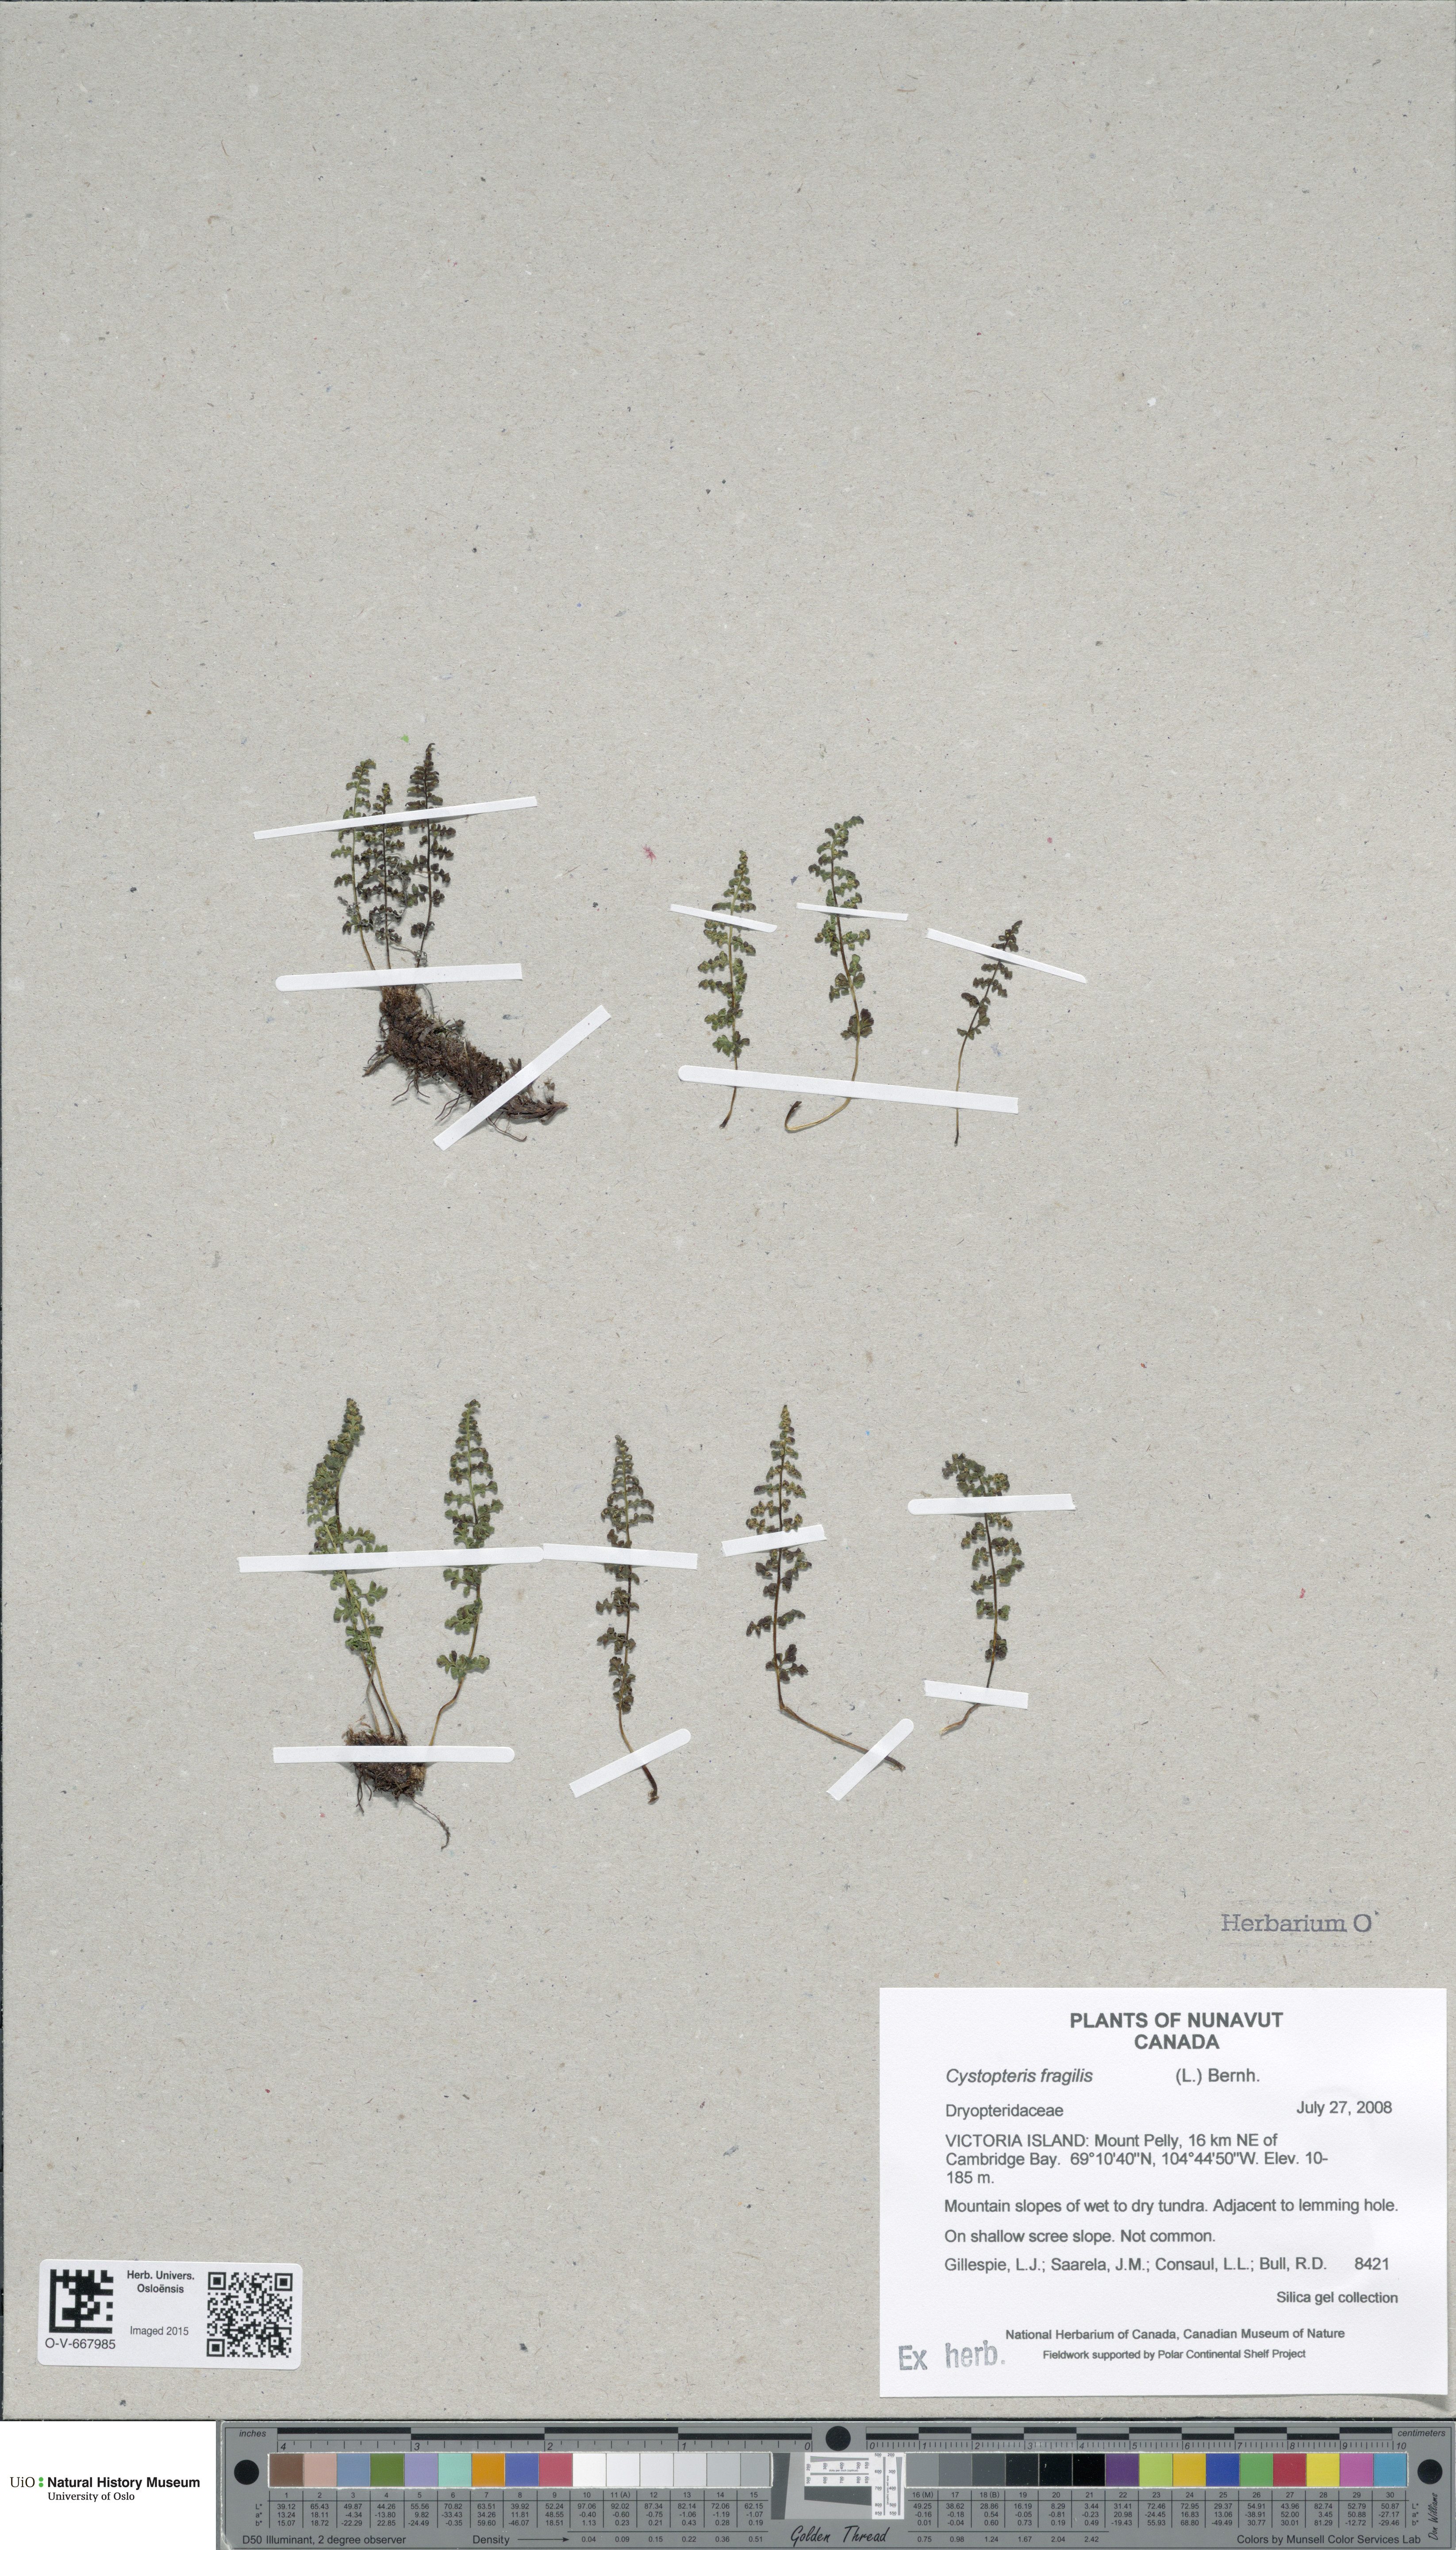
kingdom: Plantae
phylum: Tracheophyta
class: Polypodiopsida
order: Polypodiales
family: Cystopteridaceae
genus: Cystopteris
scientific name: Cystopteris fragilis
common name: Brittle bladder fern
